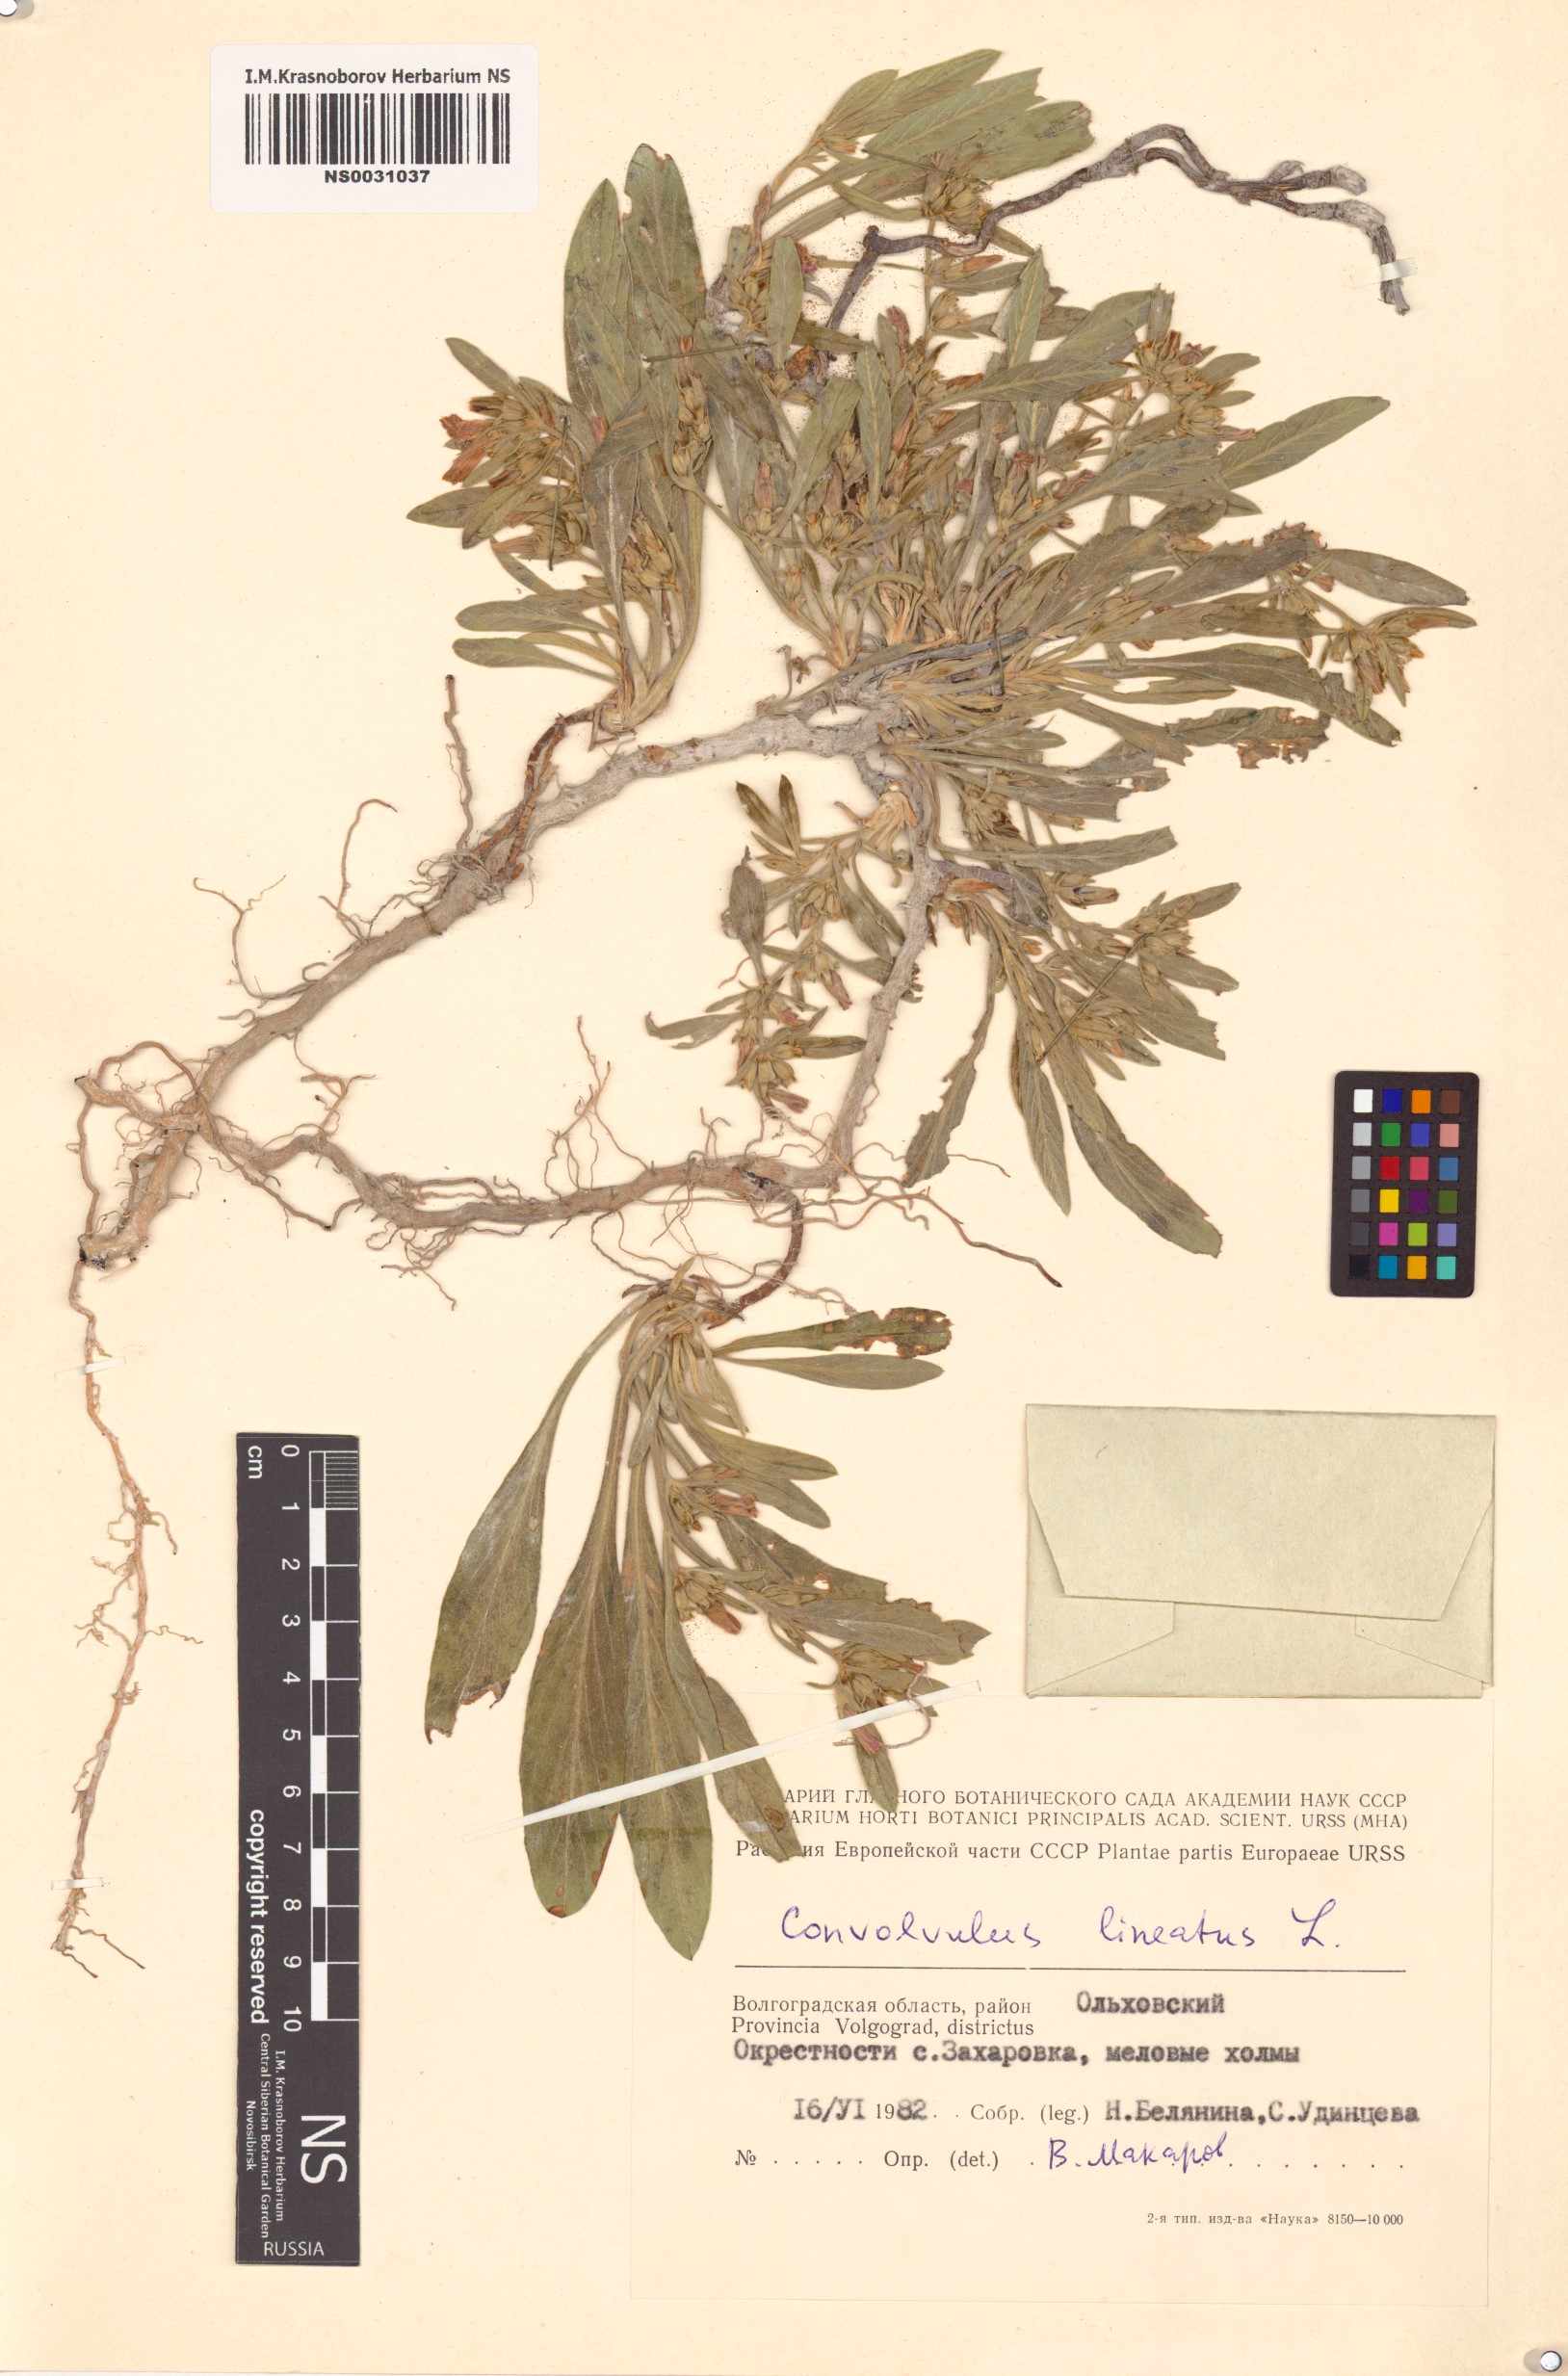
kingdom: Plantae
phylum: Tracheophyta
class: Magnoliopsida
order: Solanales
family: Convolvulaceae
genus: Convolvulus
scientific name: Convolvulus lineatus
